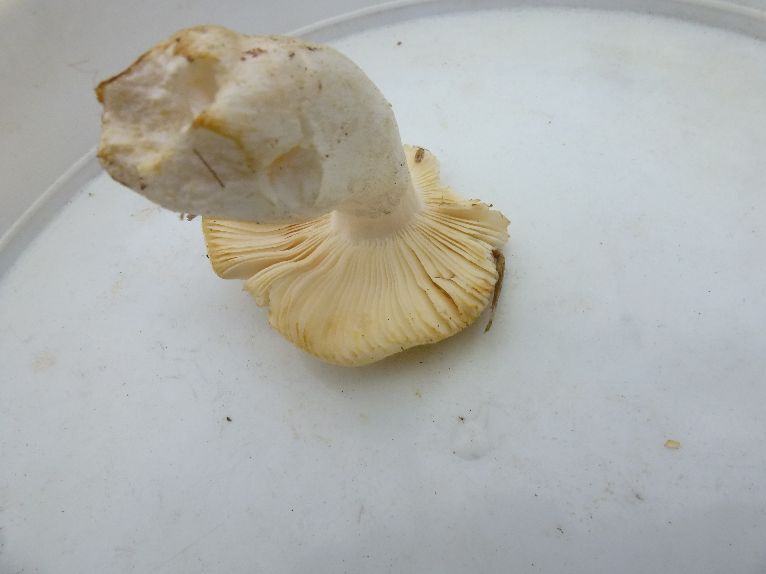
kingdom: Fungi
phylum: Basidiomycota
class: Agaricomycetes
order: Russulales
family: Russulaceae
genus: Russula
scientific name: Russula solaris
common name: sol-skørhat
